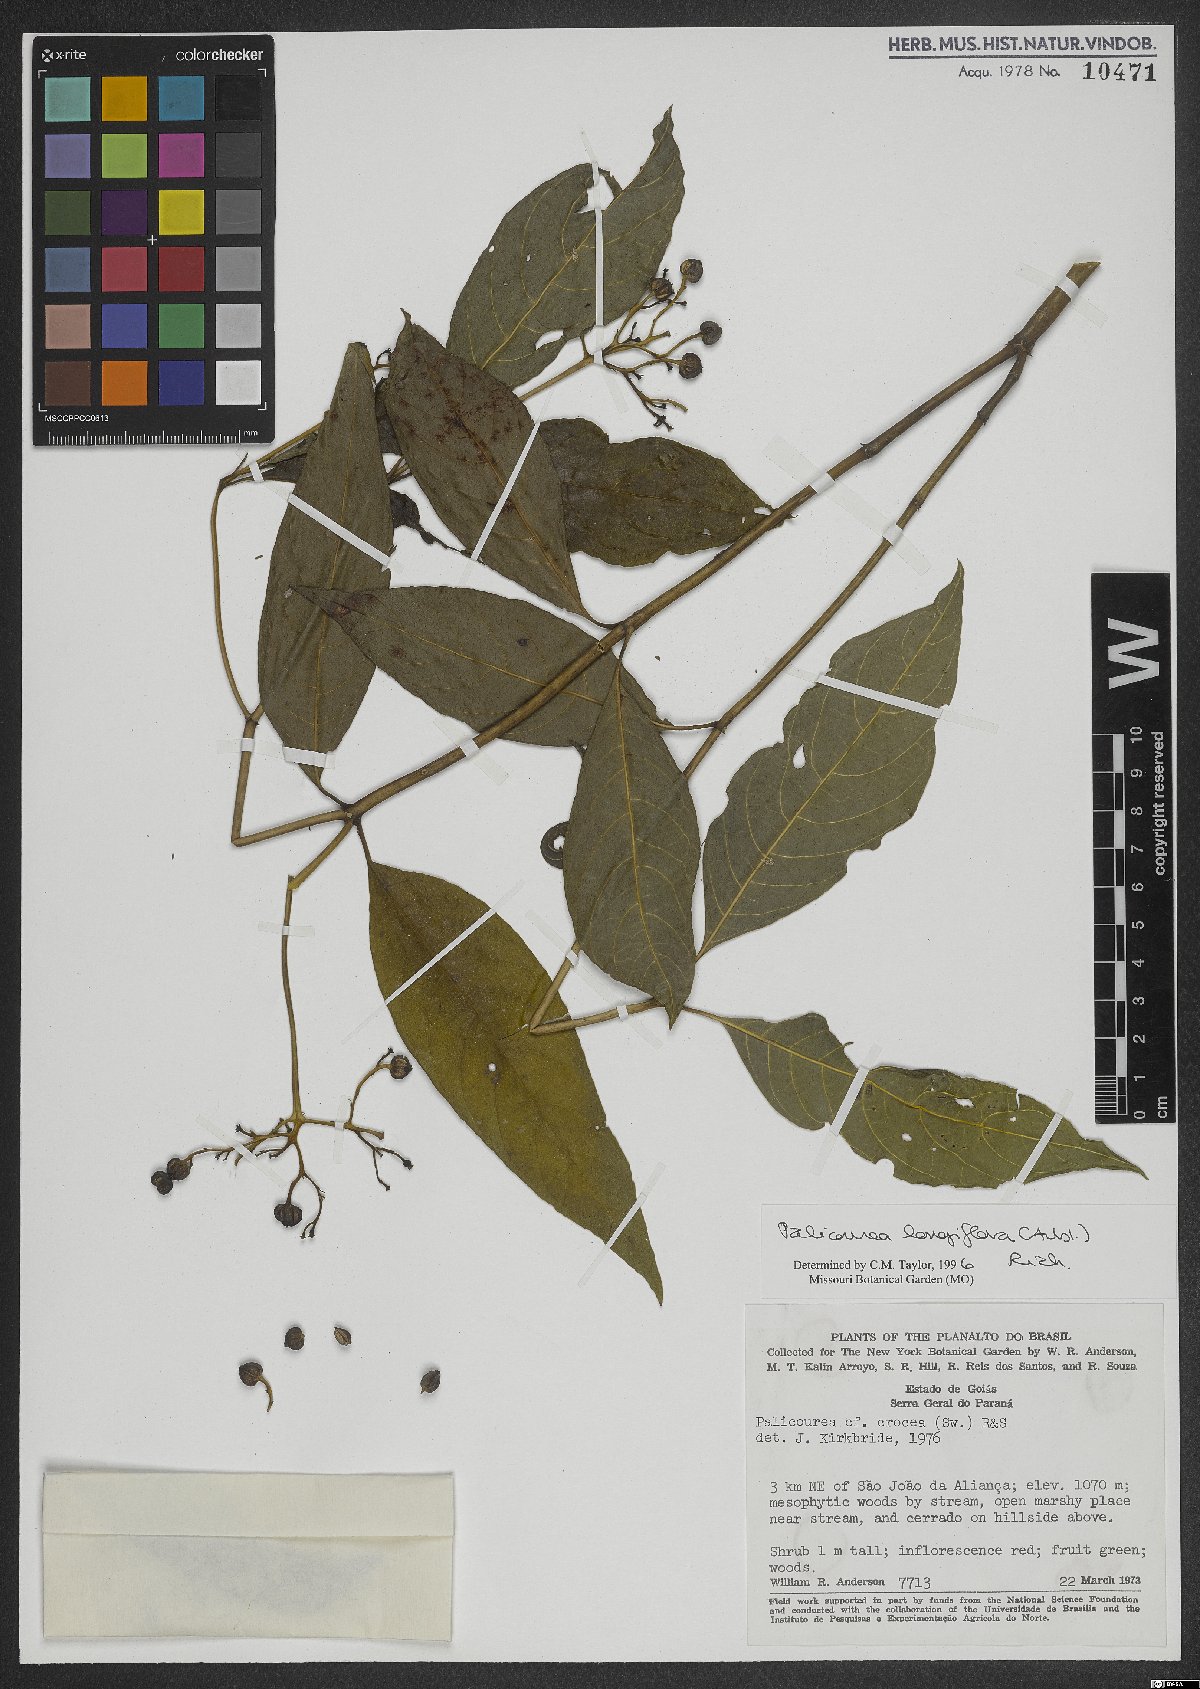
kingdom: Plantae
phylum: Tracheophyta
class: Magnoliopsida
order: Gentianales
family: Rubiaceae
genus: Palicourea
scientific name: Palicourea longiflora
